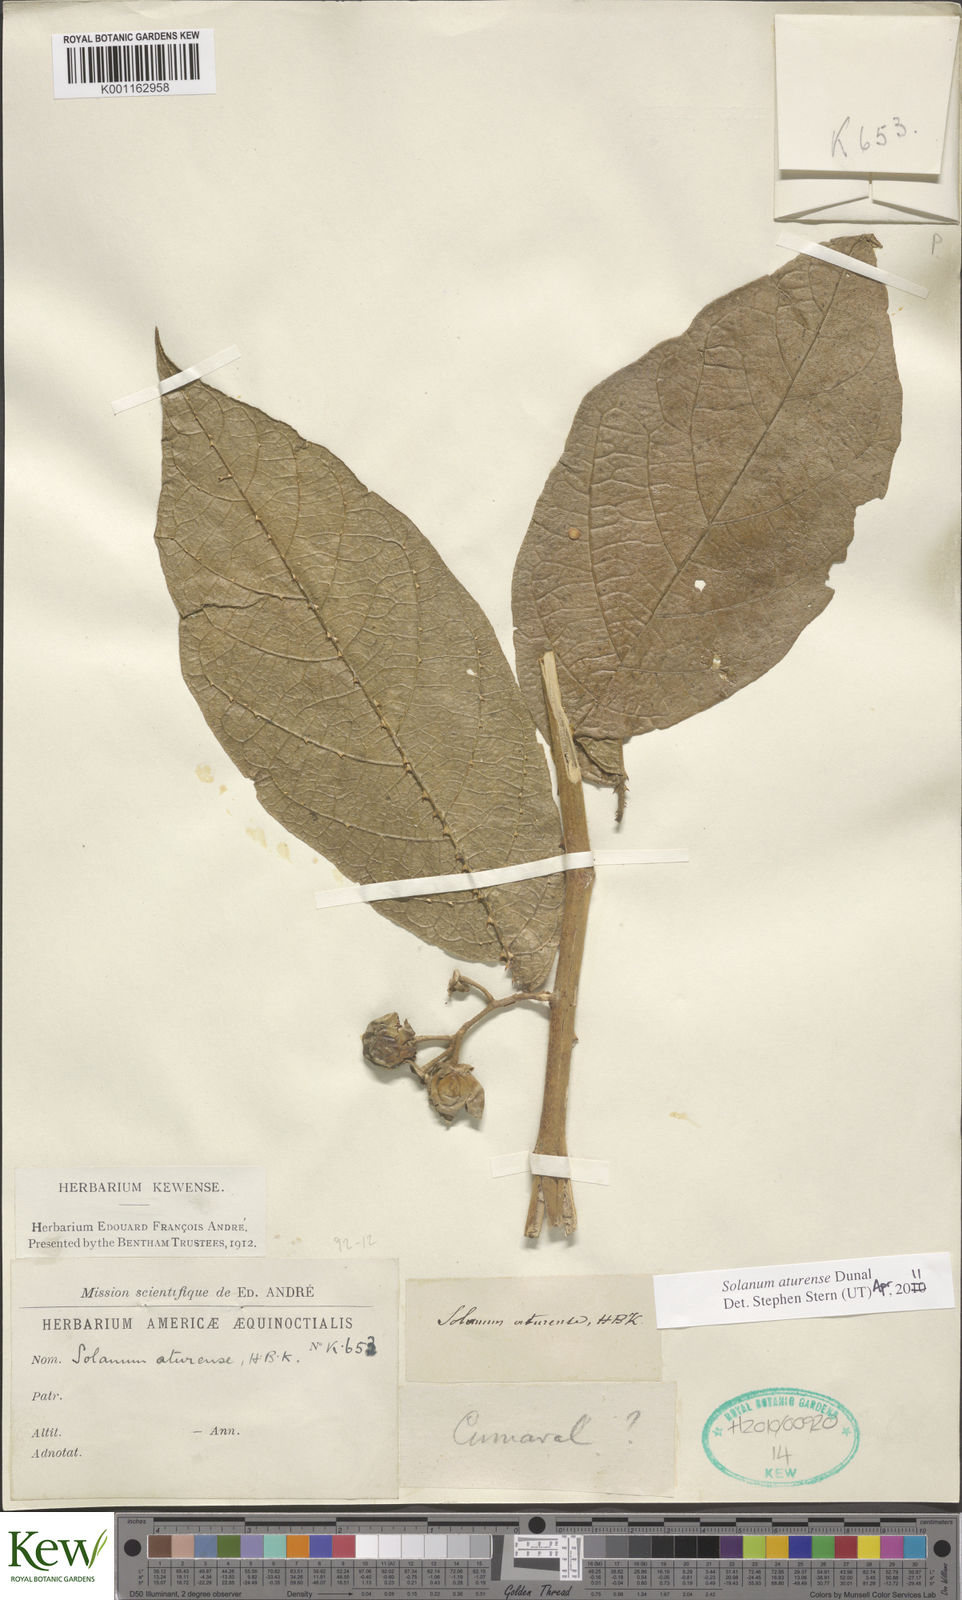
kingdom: Plantae
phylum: Tracheophyta
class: Magnoliopsida
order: Solanales
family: Solanaceae
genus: Solanum
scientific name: Solanum aturense
